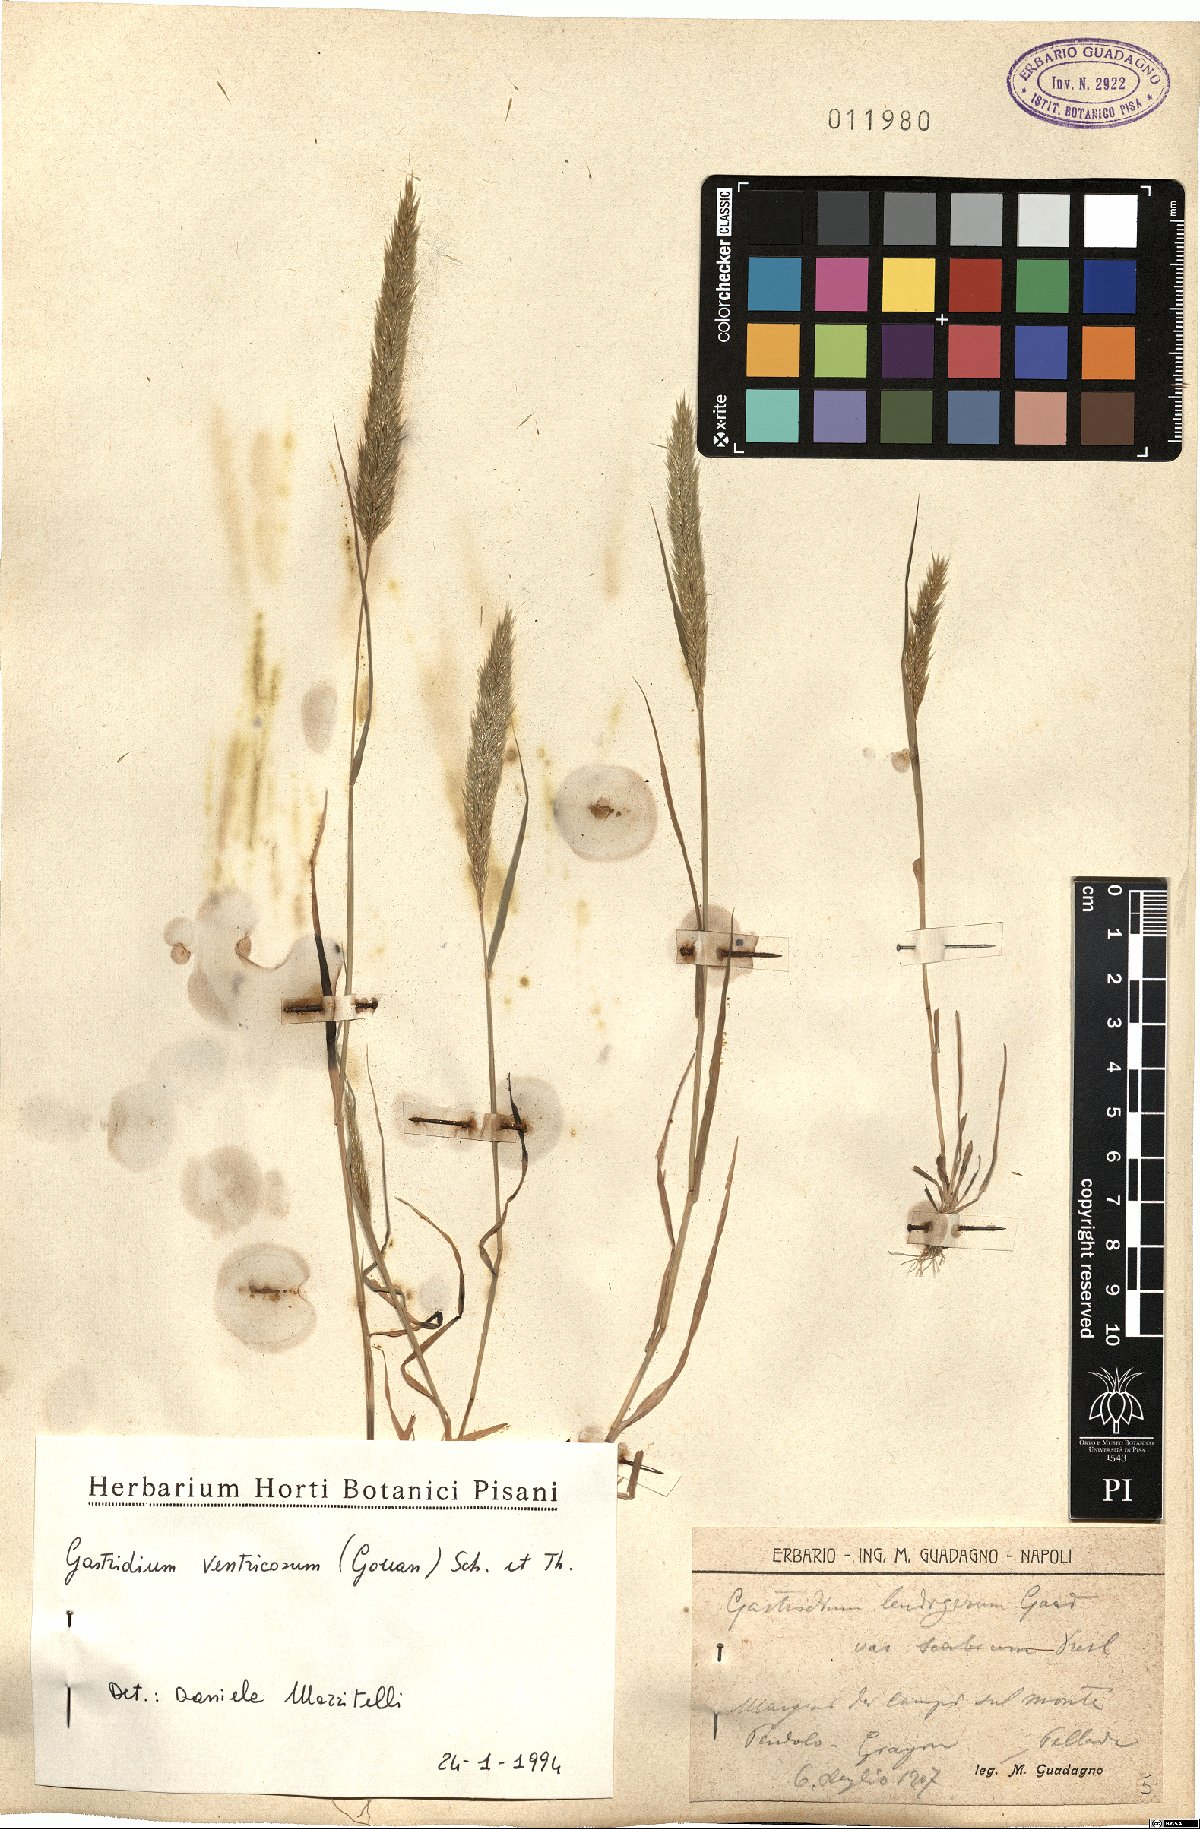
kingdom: Plantae
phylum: Tracheophyta
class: Liliopsida
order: Poales
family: Poaceae
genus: Gastridium
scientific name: Gastridium ventricosum
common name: Nit-grass
